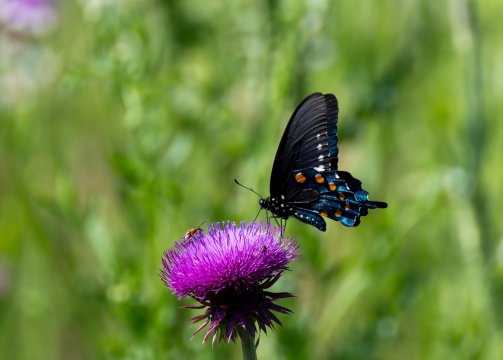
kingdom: Animalia
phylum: Arthropoda
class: Insecta
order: Lepidoptera
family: Papilionidae
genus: Battus
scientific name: Battus philenor
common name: Pipevine Swallowtail
